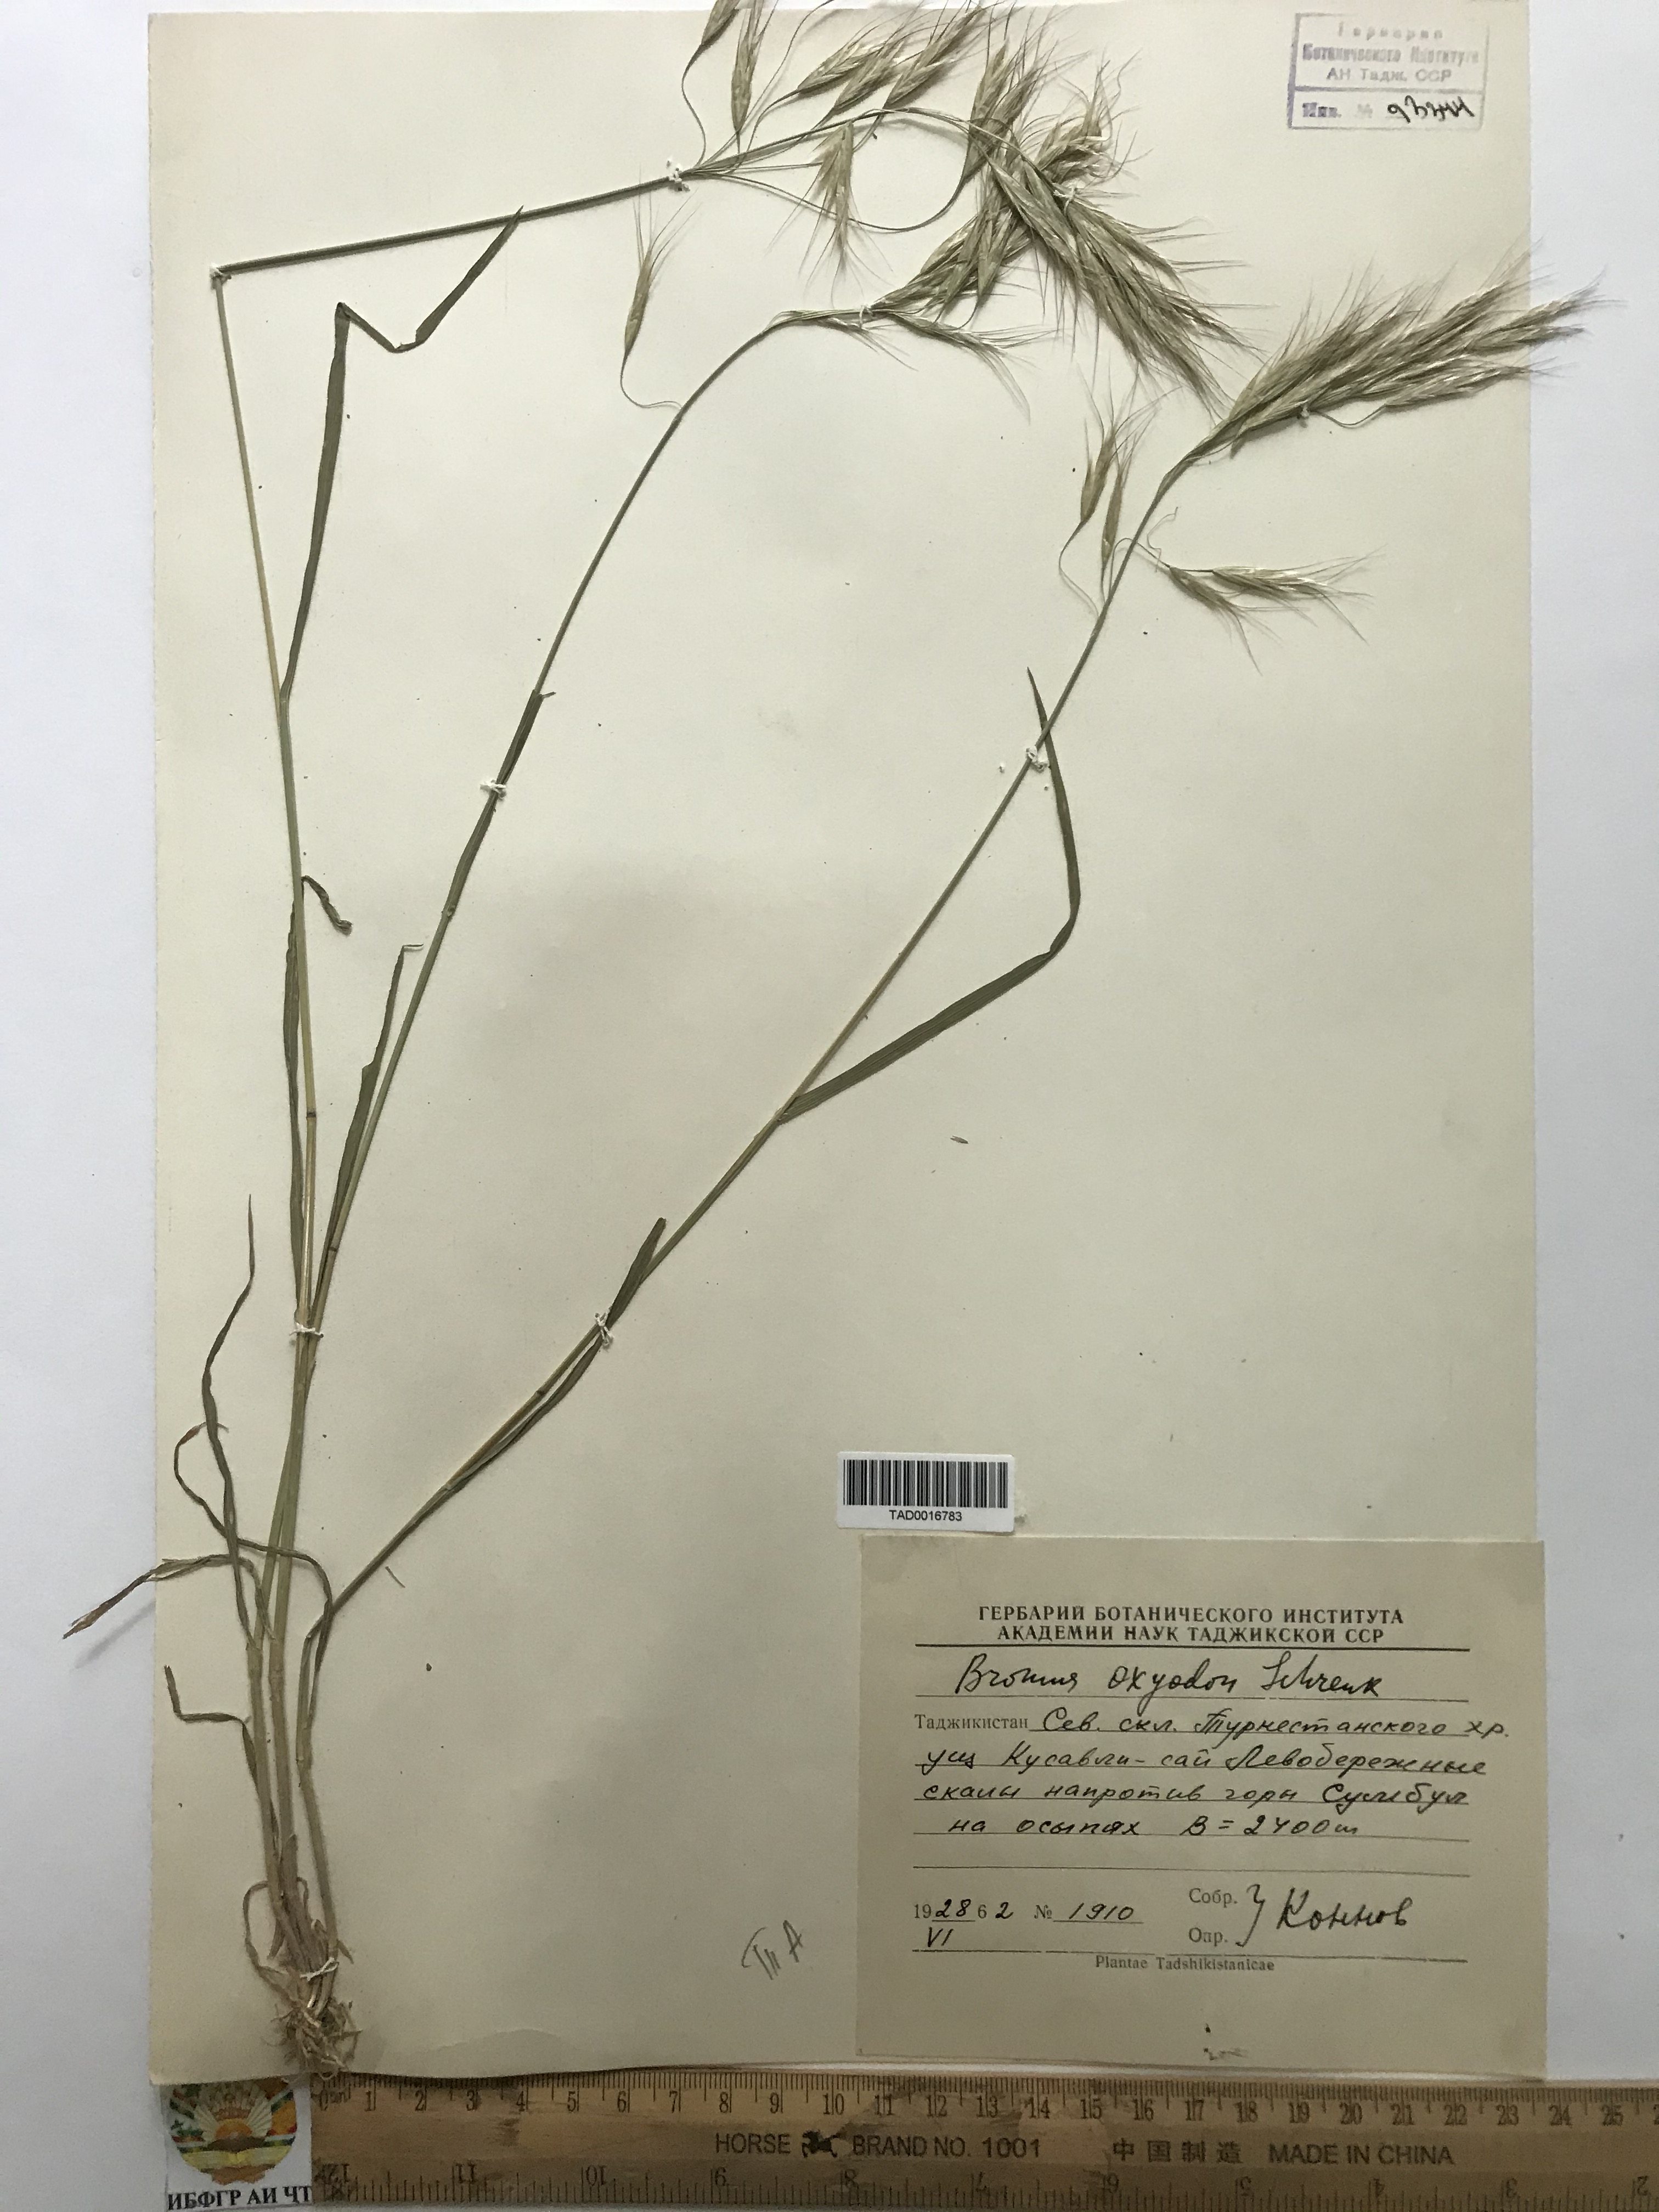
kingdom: Plantae
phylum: Tracheophyta
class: Liliopsida
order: Poales
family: Poaceae
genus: Bromus
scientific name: Bromus oxyodon
